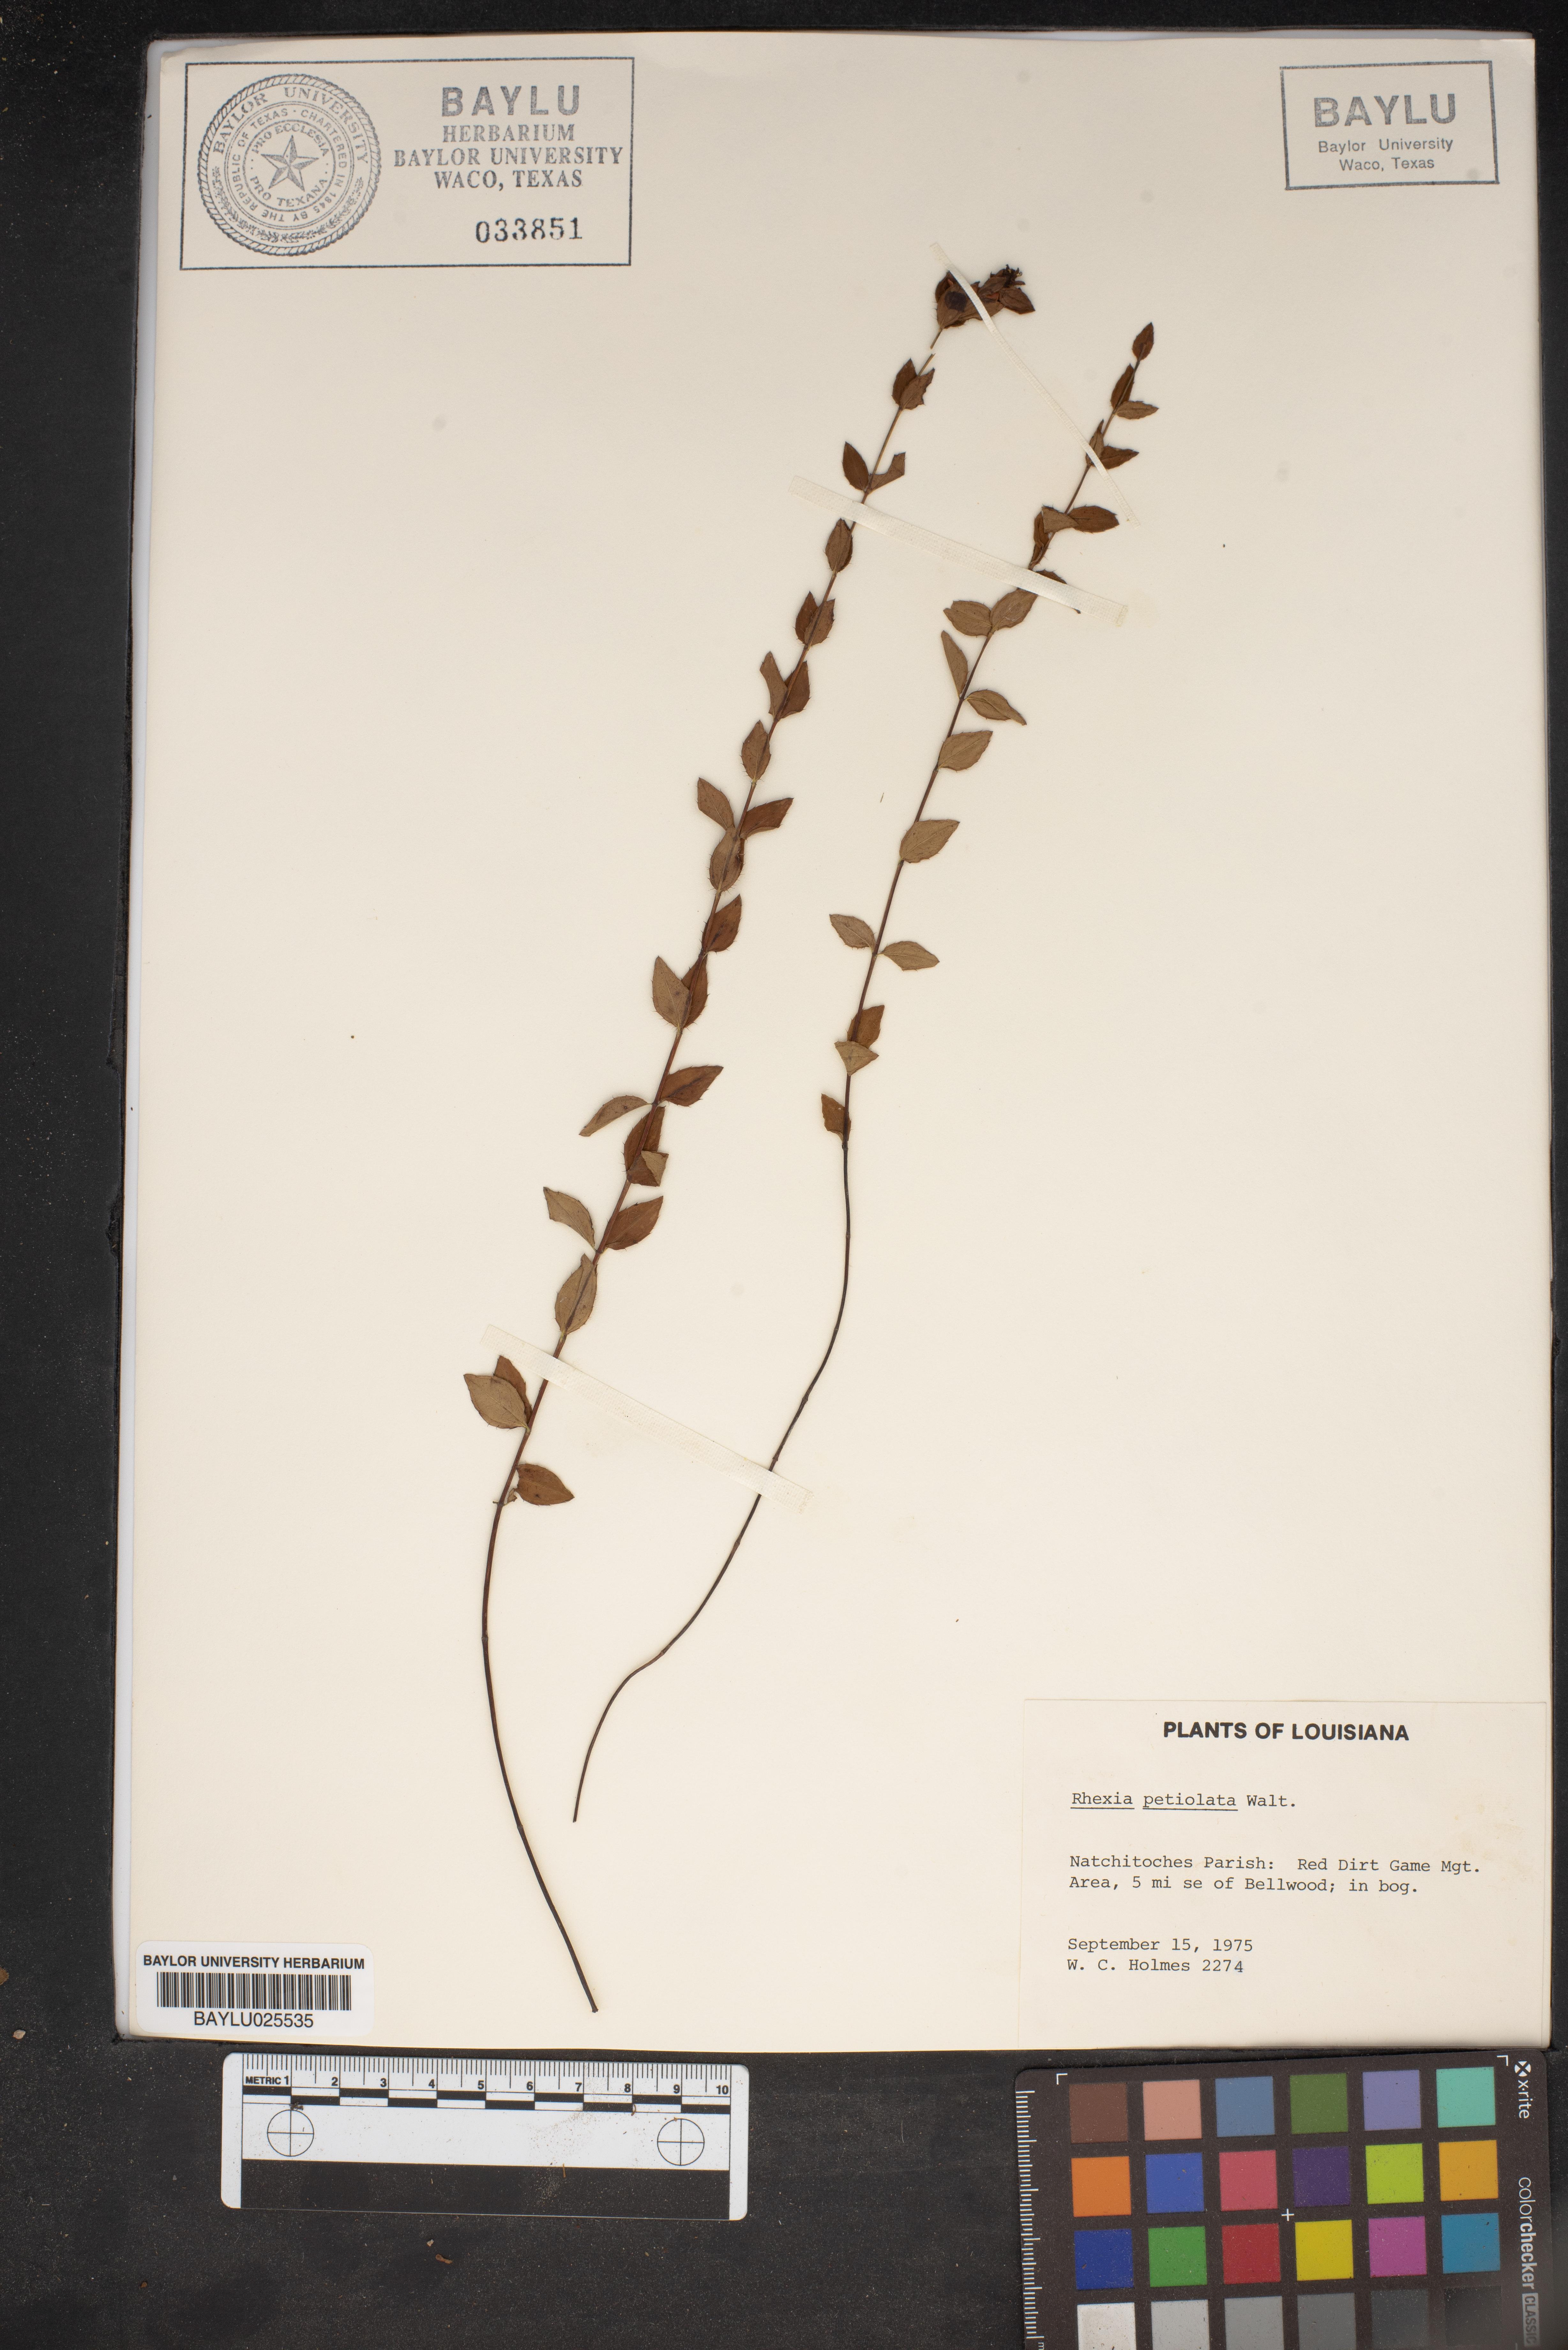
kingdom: Plantae
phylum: Tracheophyta
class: Magnoliopsida
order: Myrtales
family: Melastomataceae
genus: Rhexia
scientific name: Rhexia petiolata
